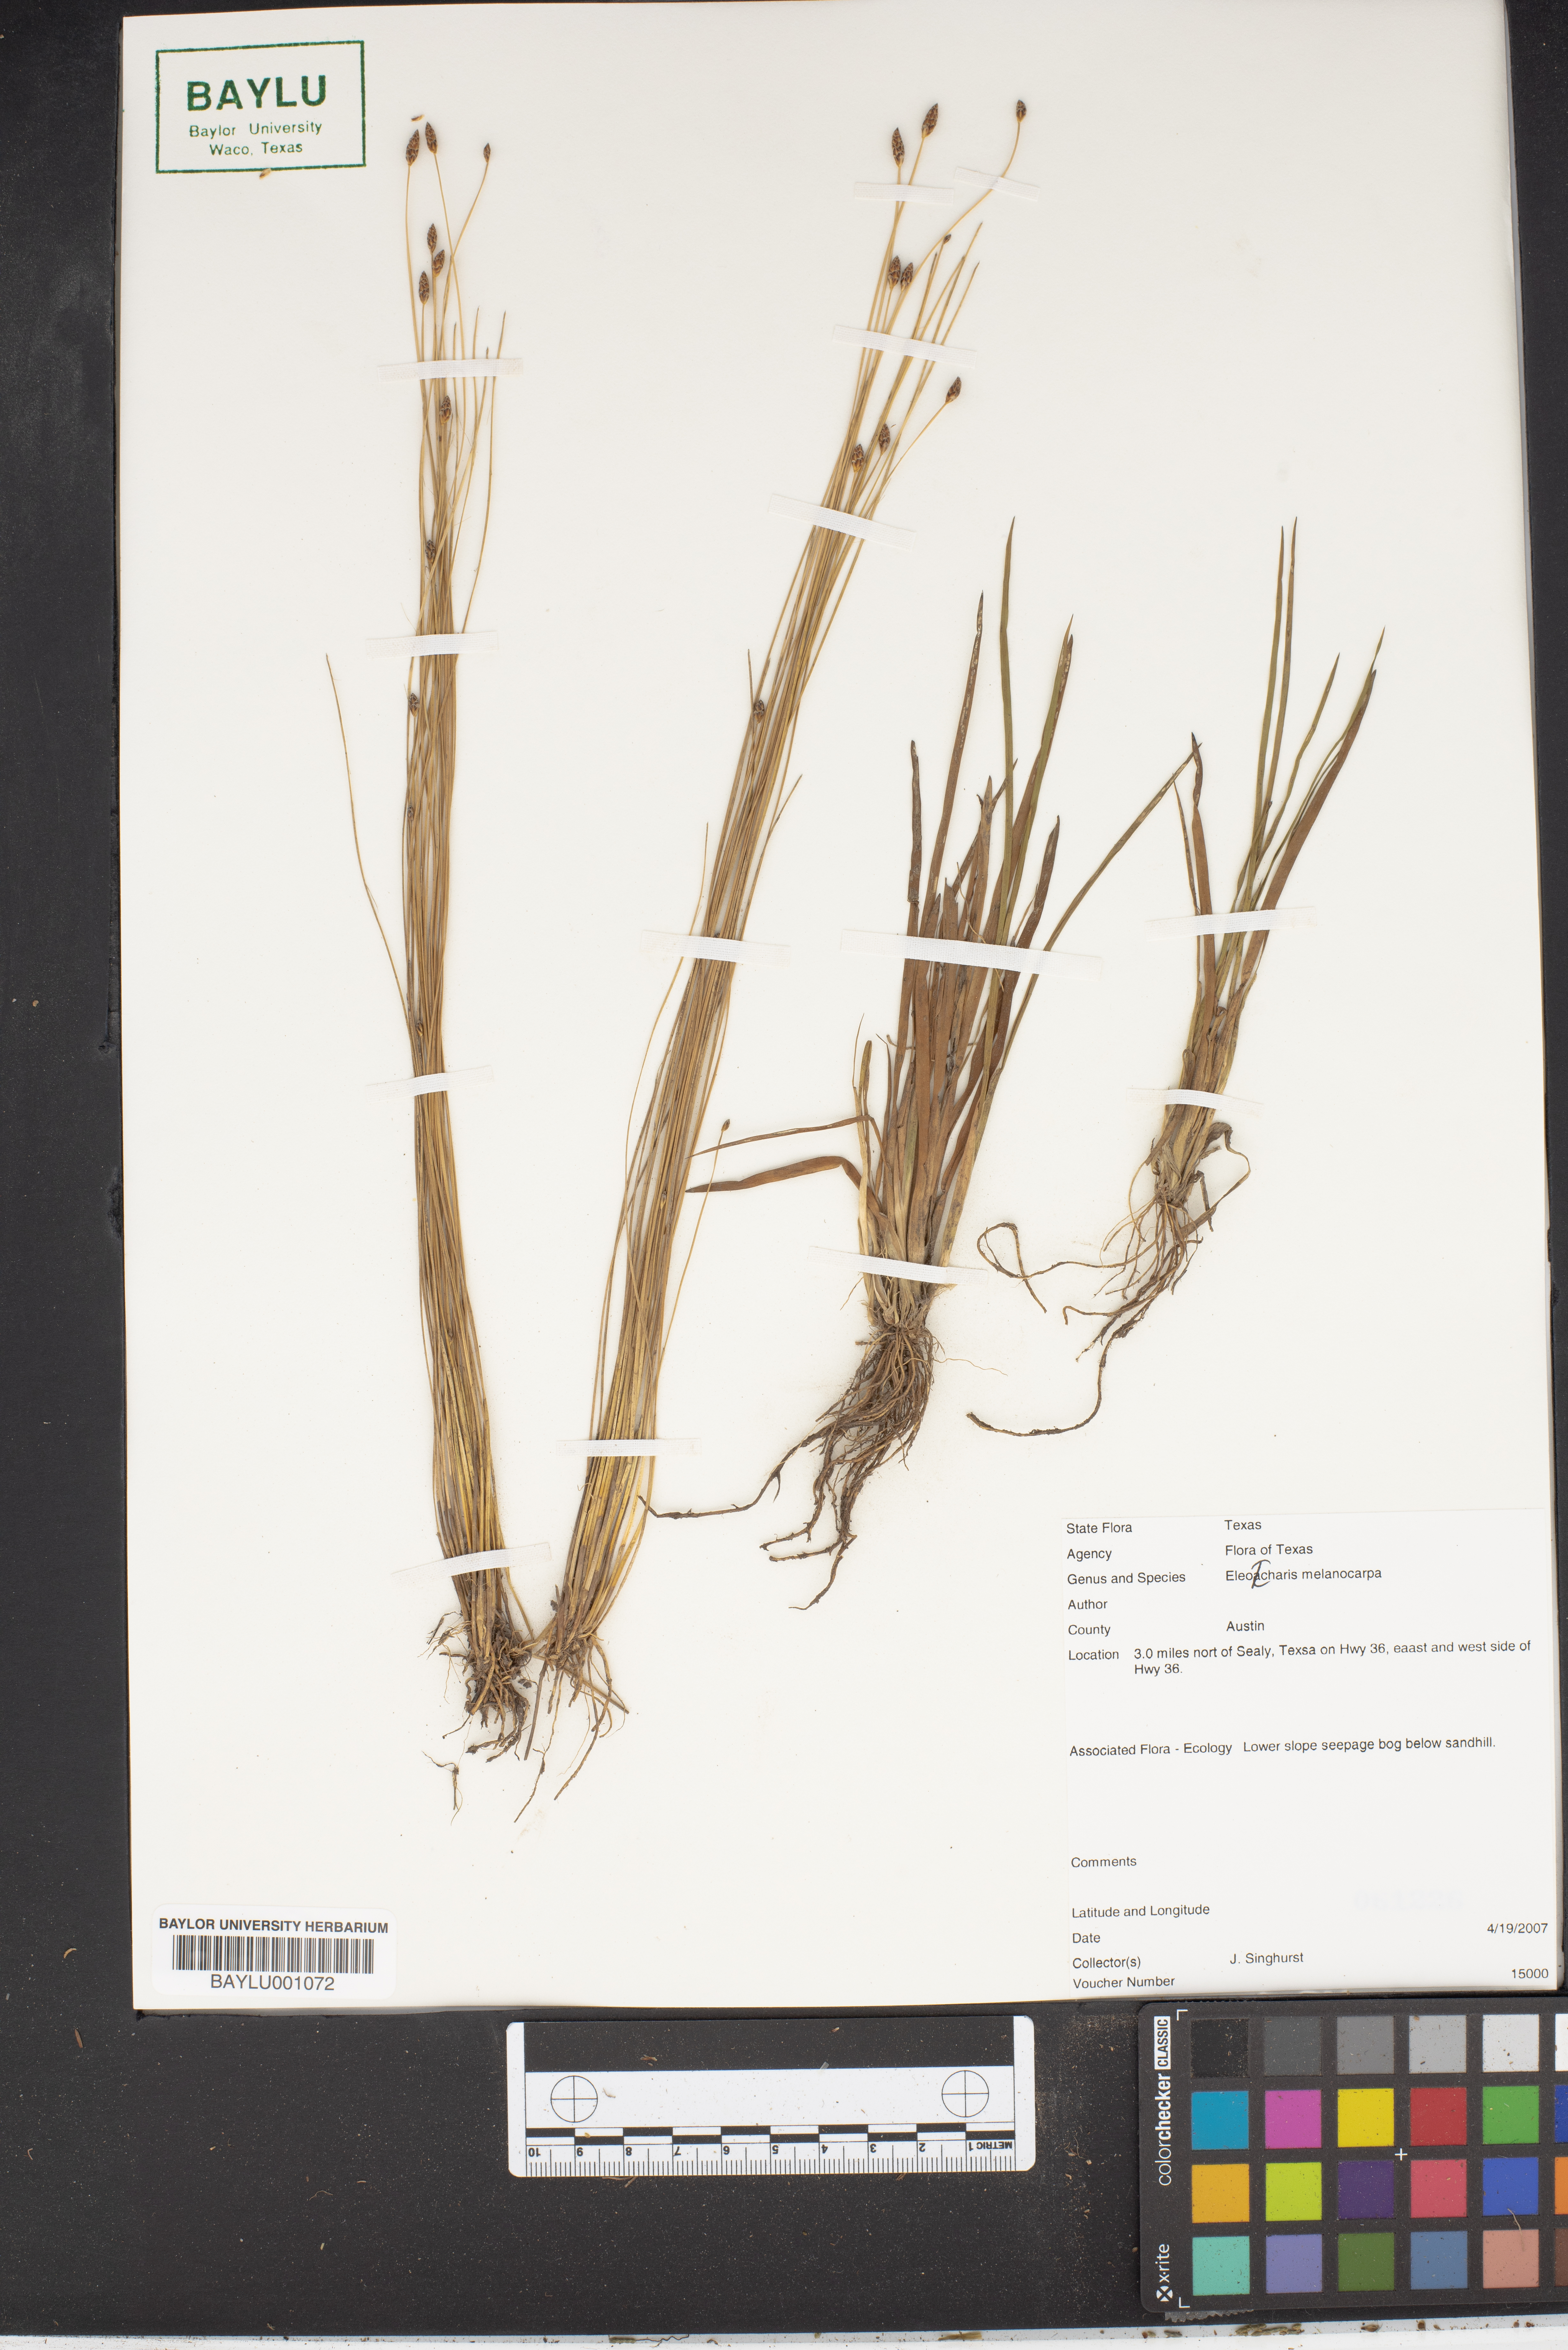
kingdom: Plantae
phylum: Tracheophyta
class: Liliopsida
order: Poales
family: Cyperaceae
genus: Eleocharis
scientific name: Eleocharis melanocarpa
